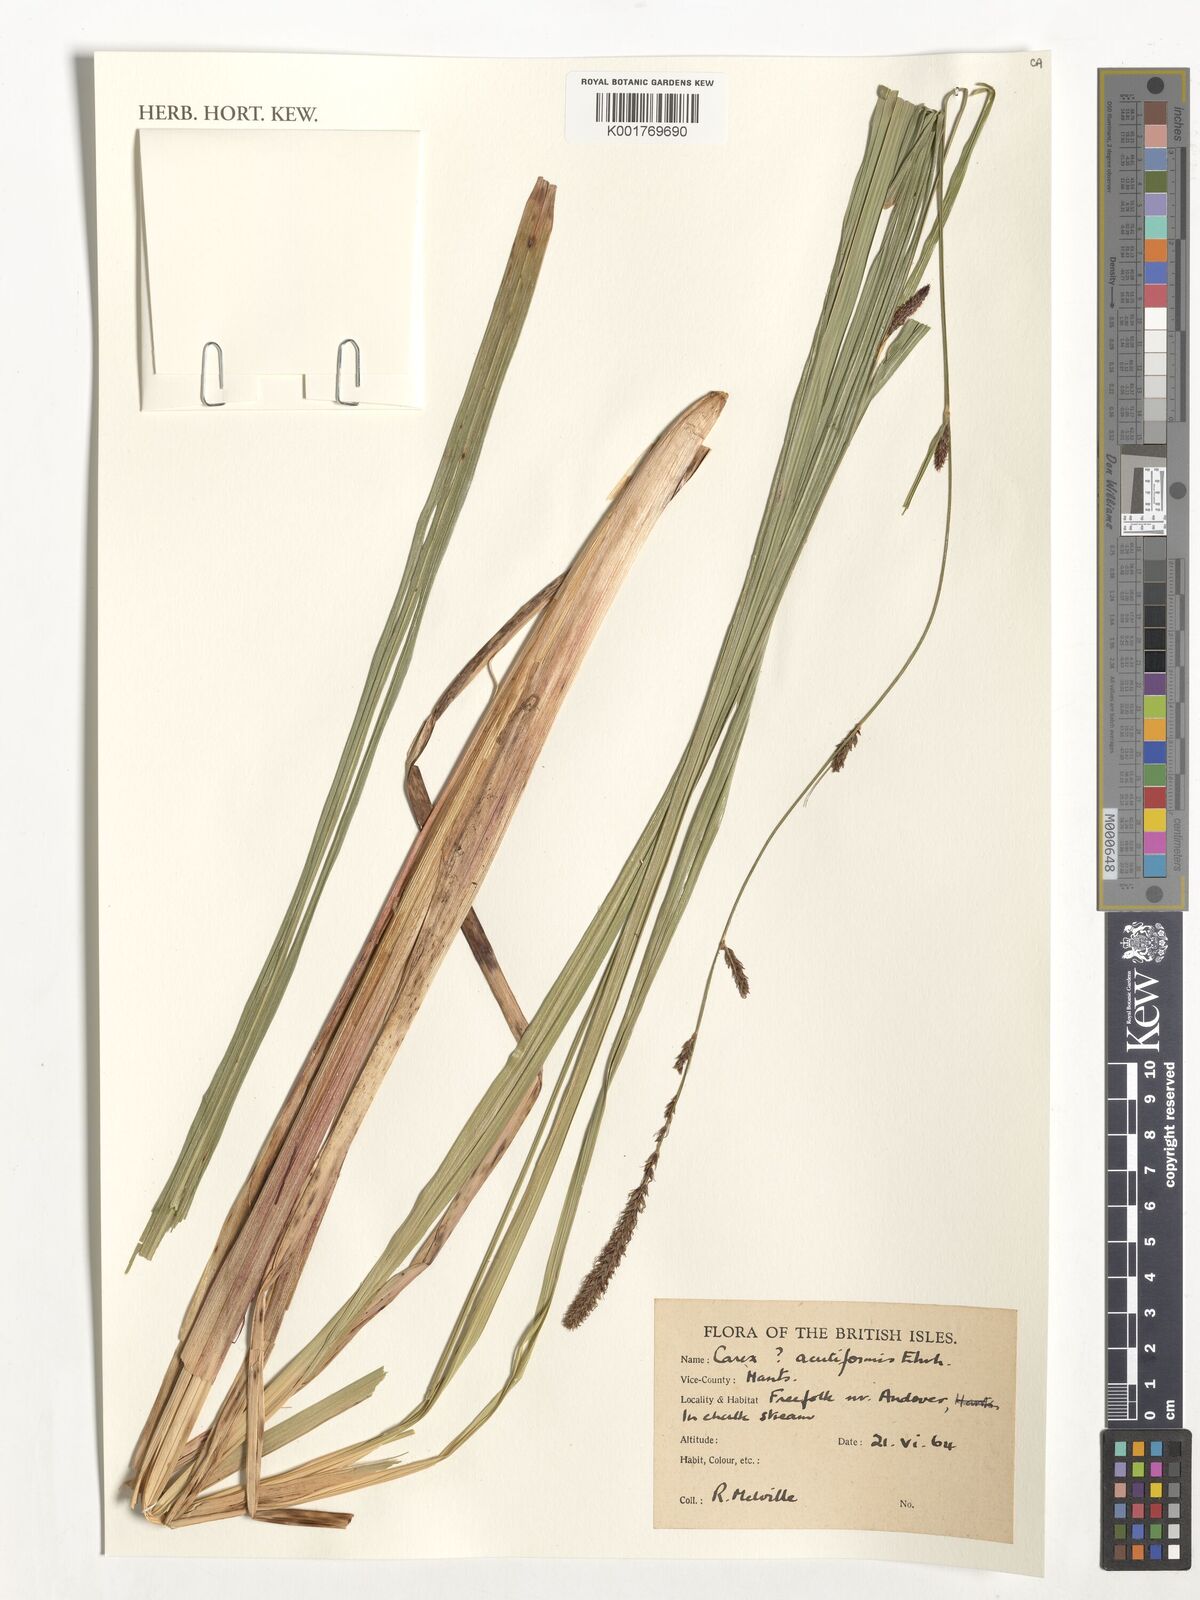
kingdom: Plantae
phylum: Tracheophyta
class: Liliopsida
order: Poales
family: Cyperaceae
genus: Carex
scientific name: Carex acutiformis
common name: Lesser pond-sedge
